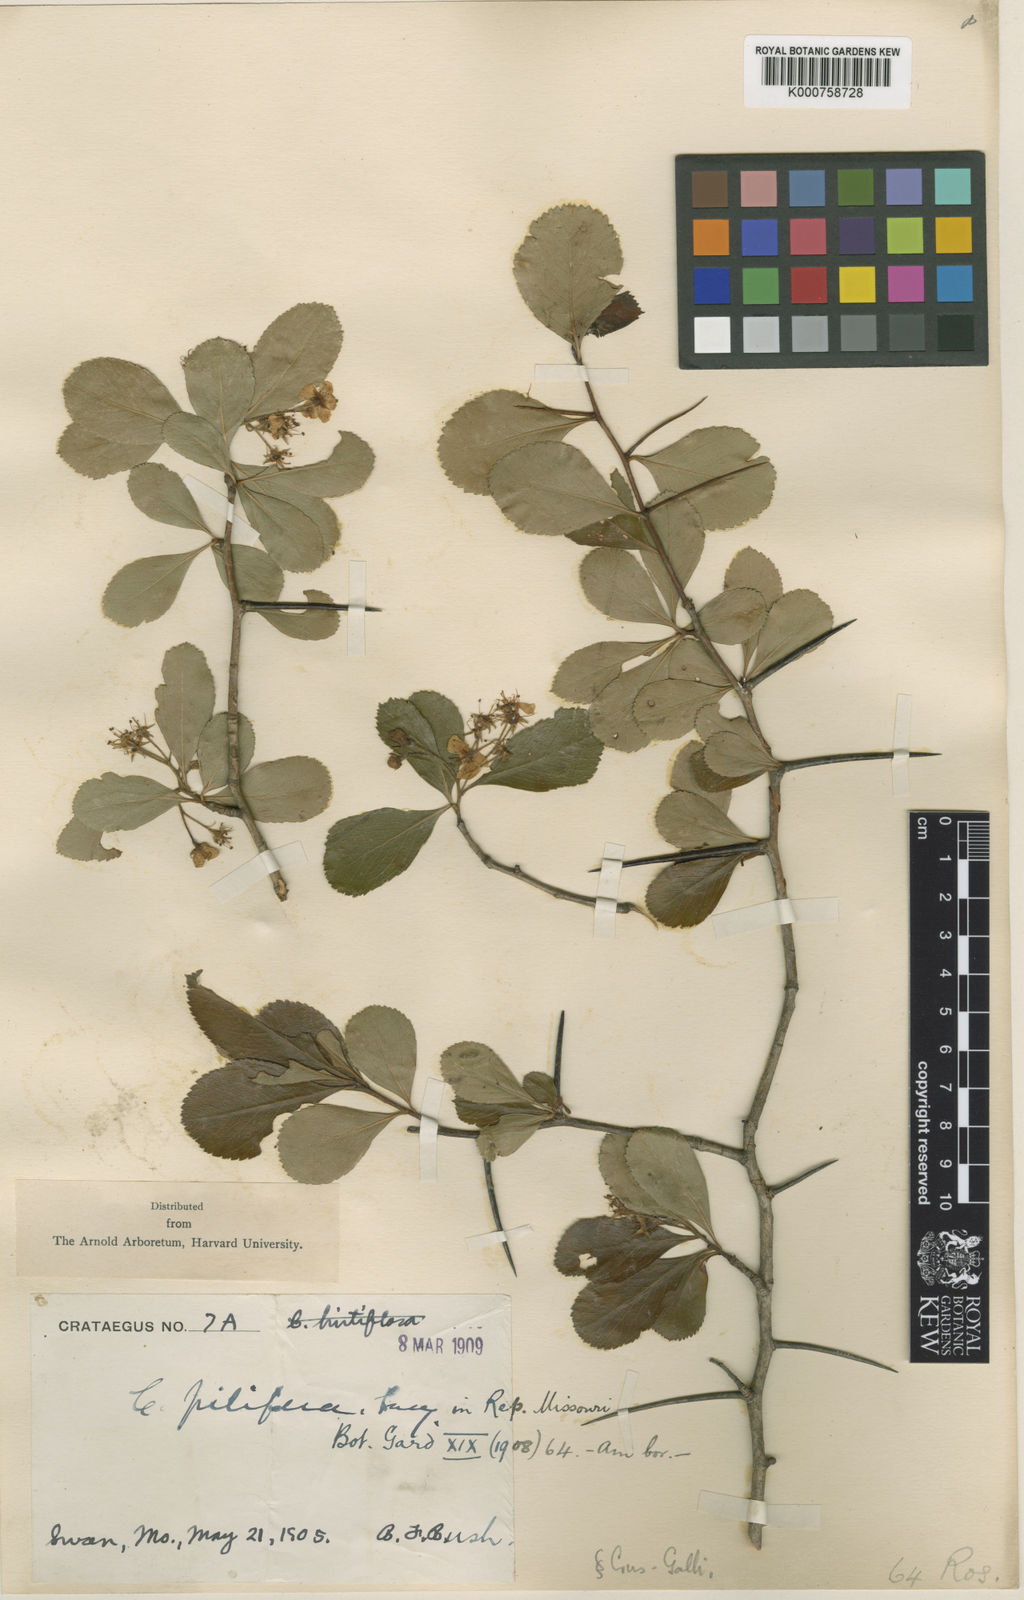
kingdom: Plantae
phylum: Tracheophyta
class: Magnoliopsida
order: Rosales
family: Rosaceae
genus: Crataegus
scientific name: Crataegus
